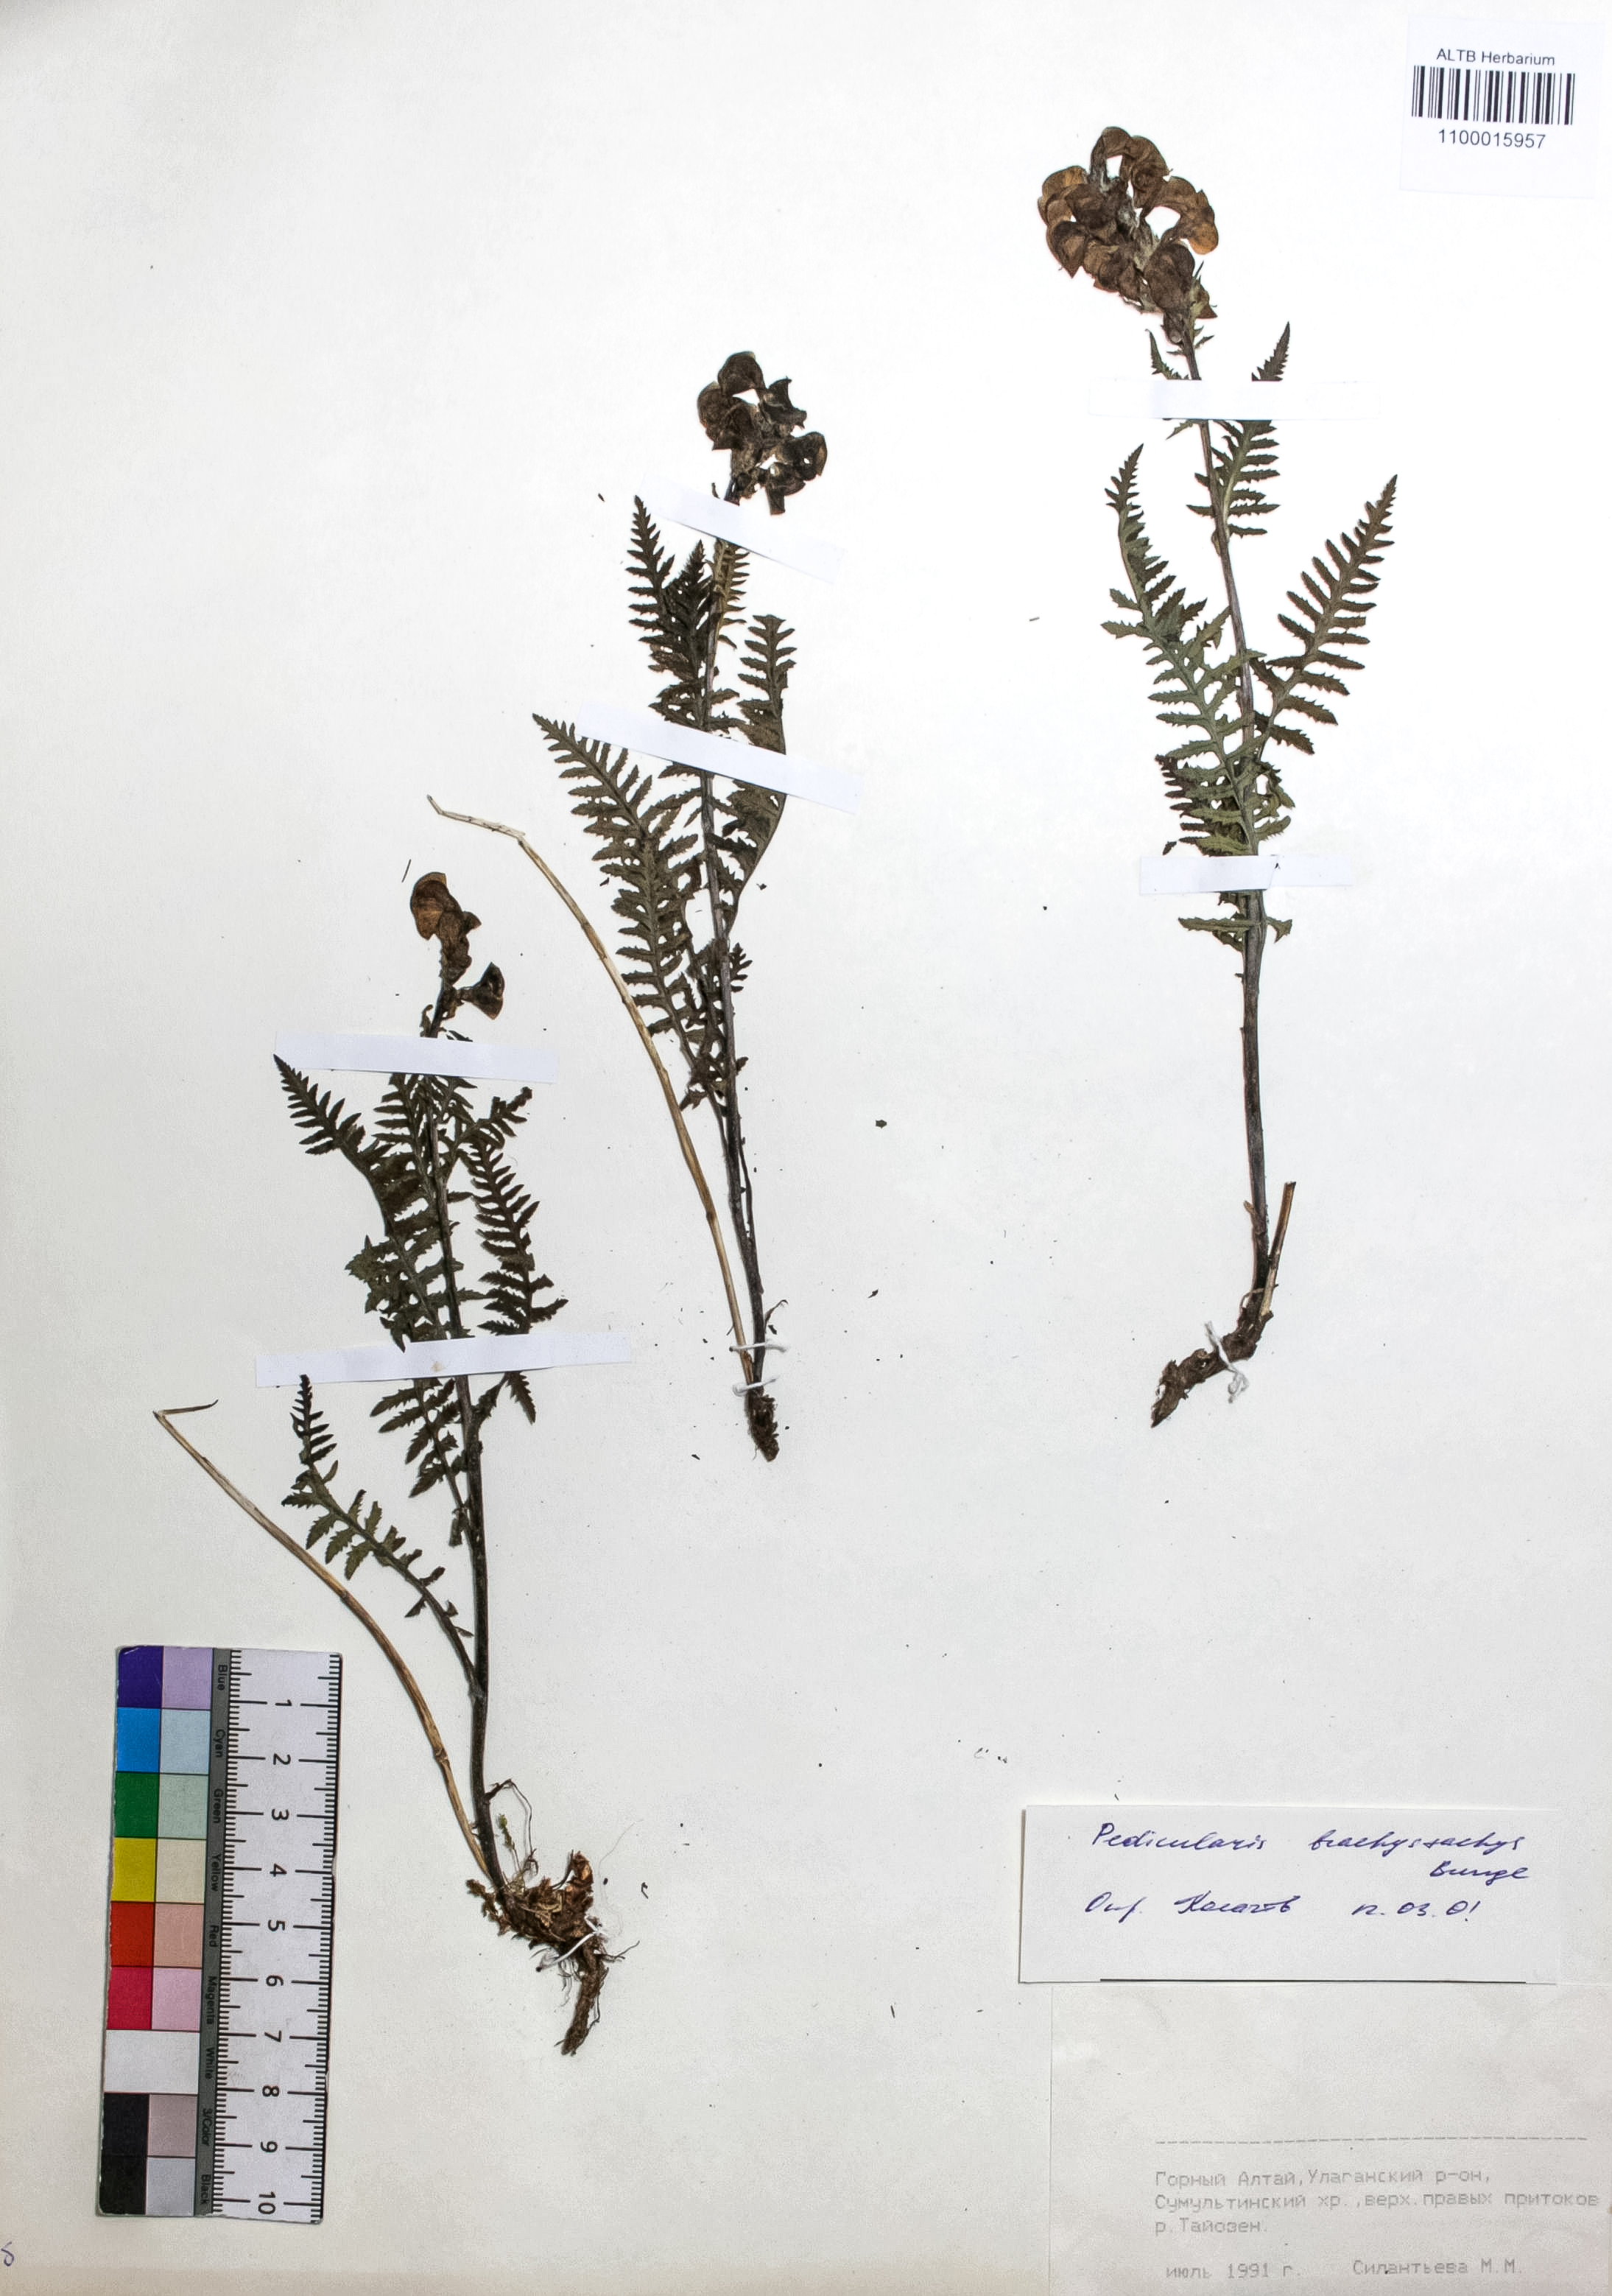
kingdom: Plantae
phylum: Tracheophyta
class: Magnoliopsida
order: Lamiales
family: Orobanchaceae
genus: Pedicularis
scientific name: Pedicularis brachystachys
